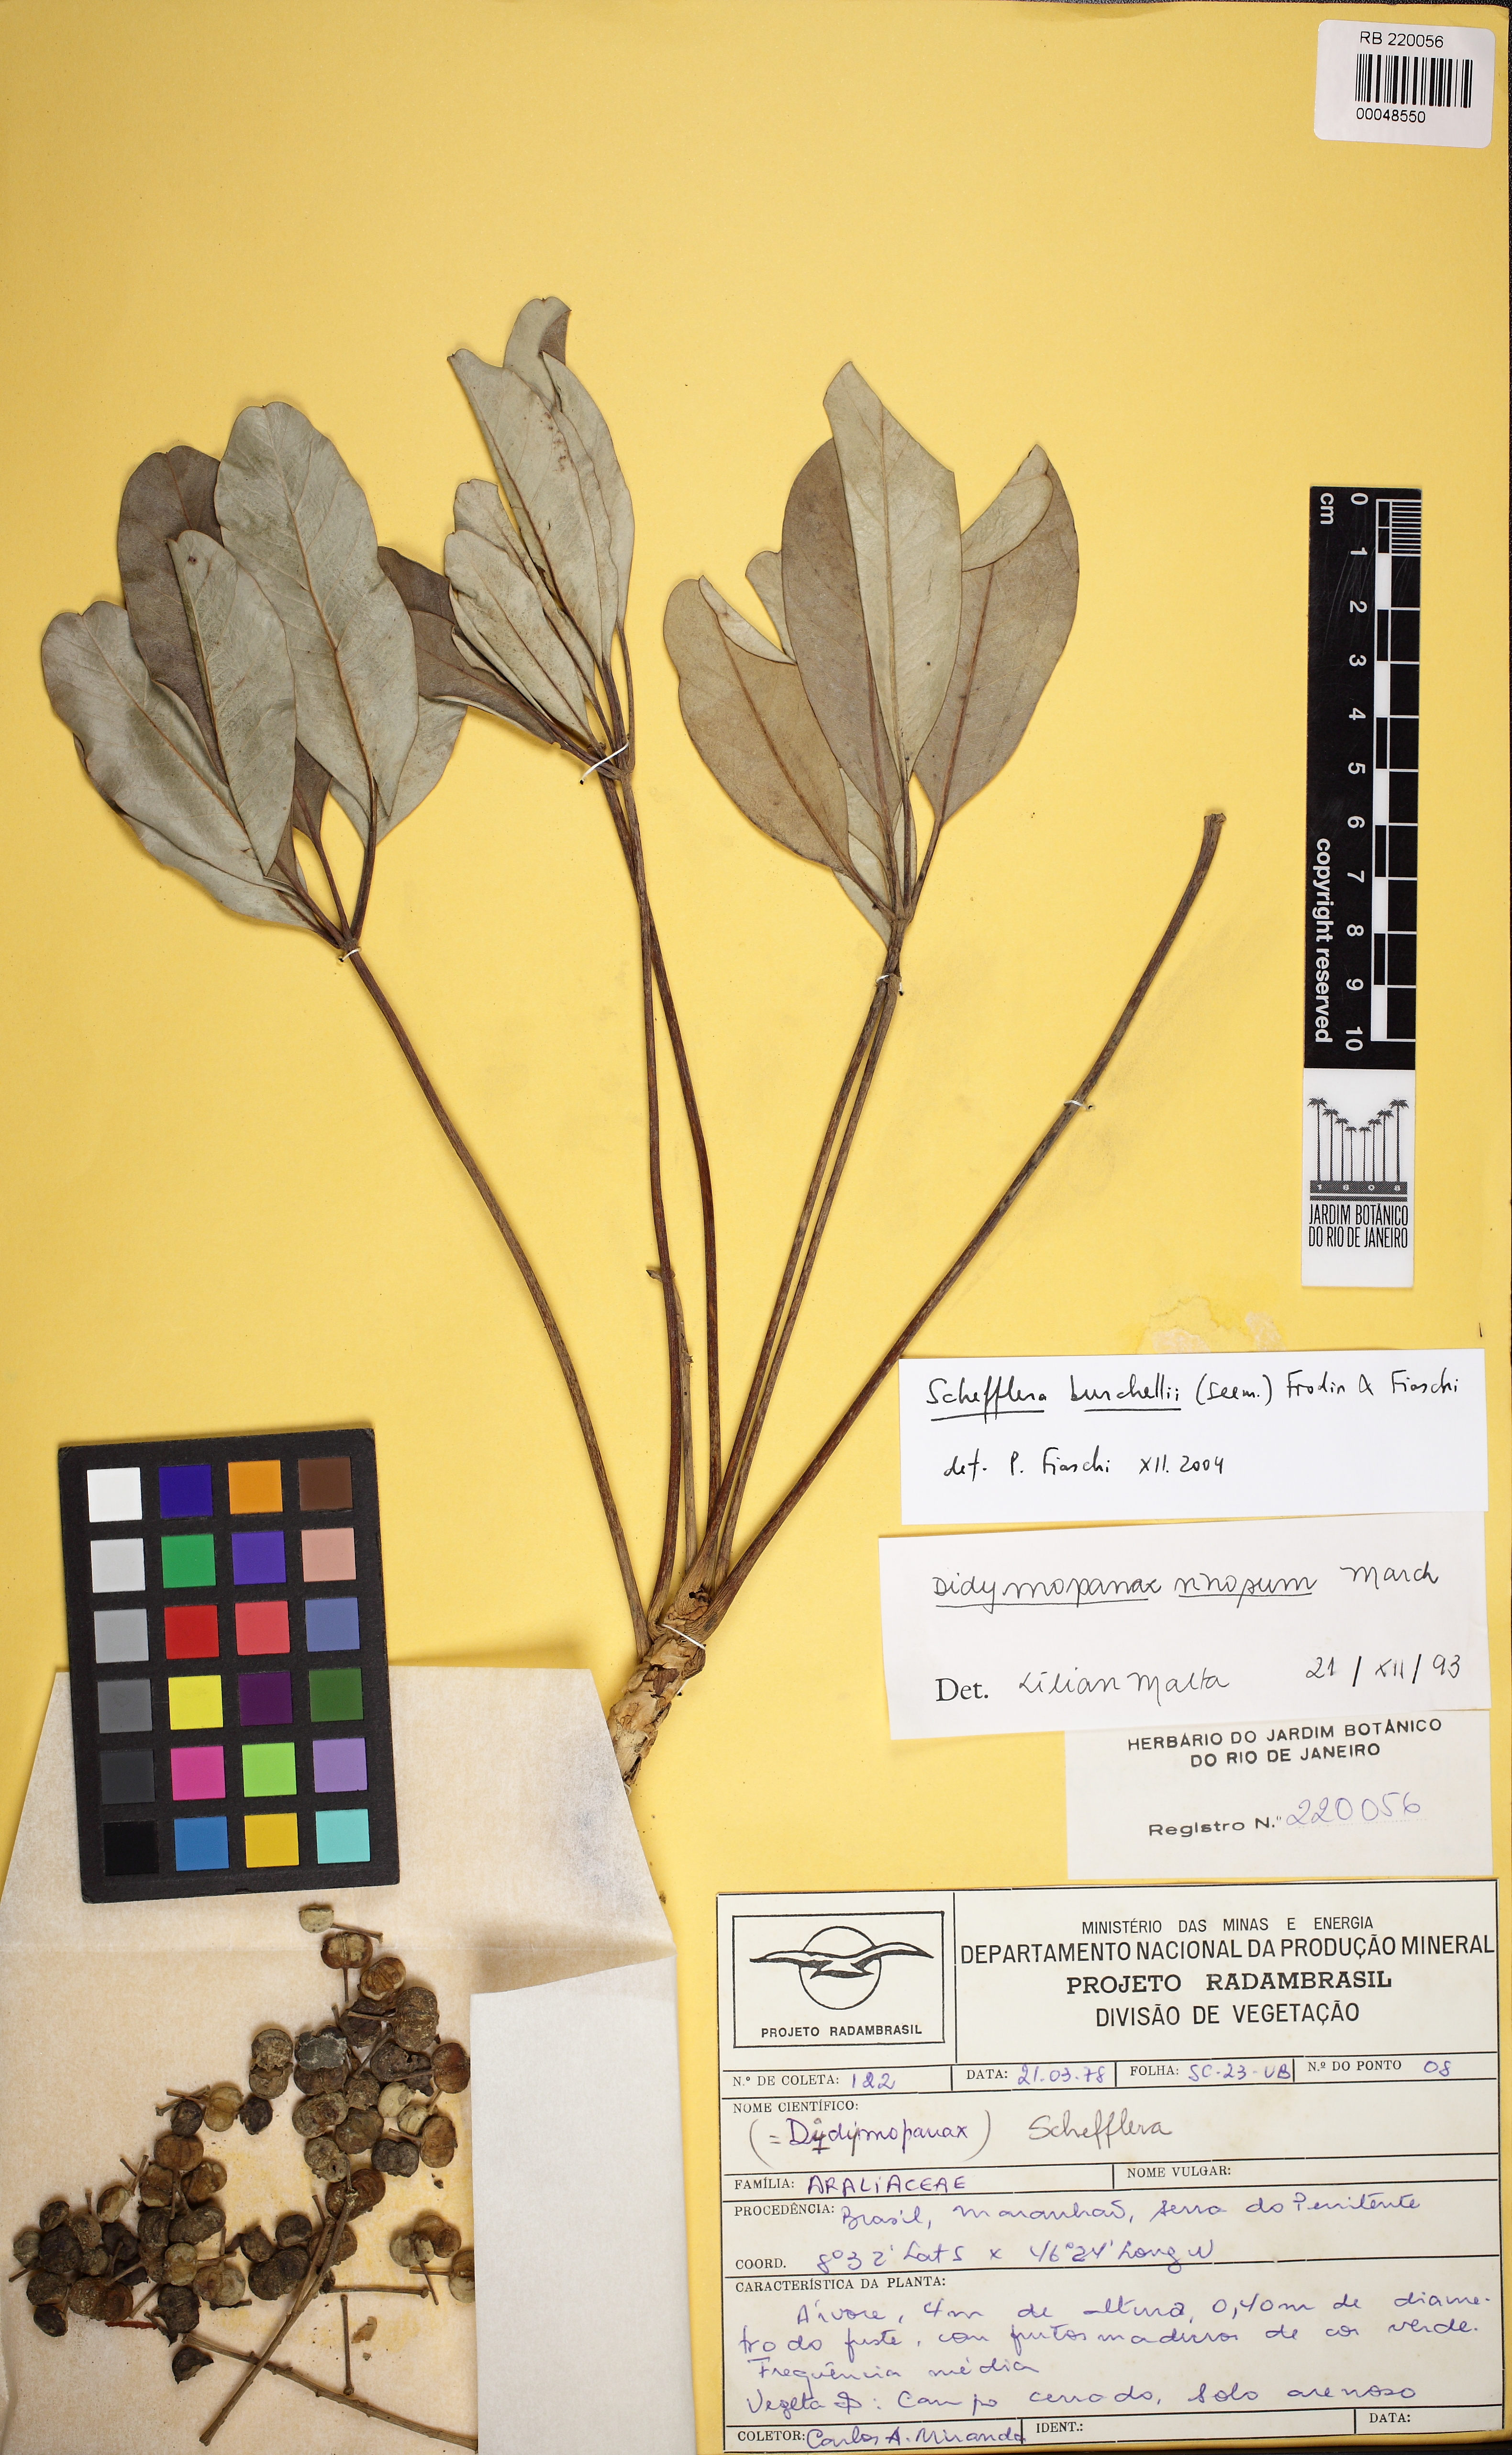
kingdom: Plantae
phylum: Tracheophyta
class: Magnoliopsida
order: Apiales
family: Araliaceae
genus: Didymopanax
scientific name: Didymopanax burchellii
